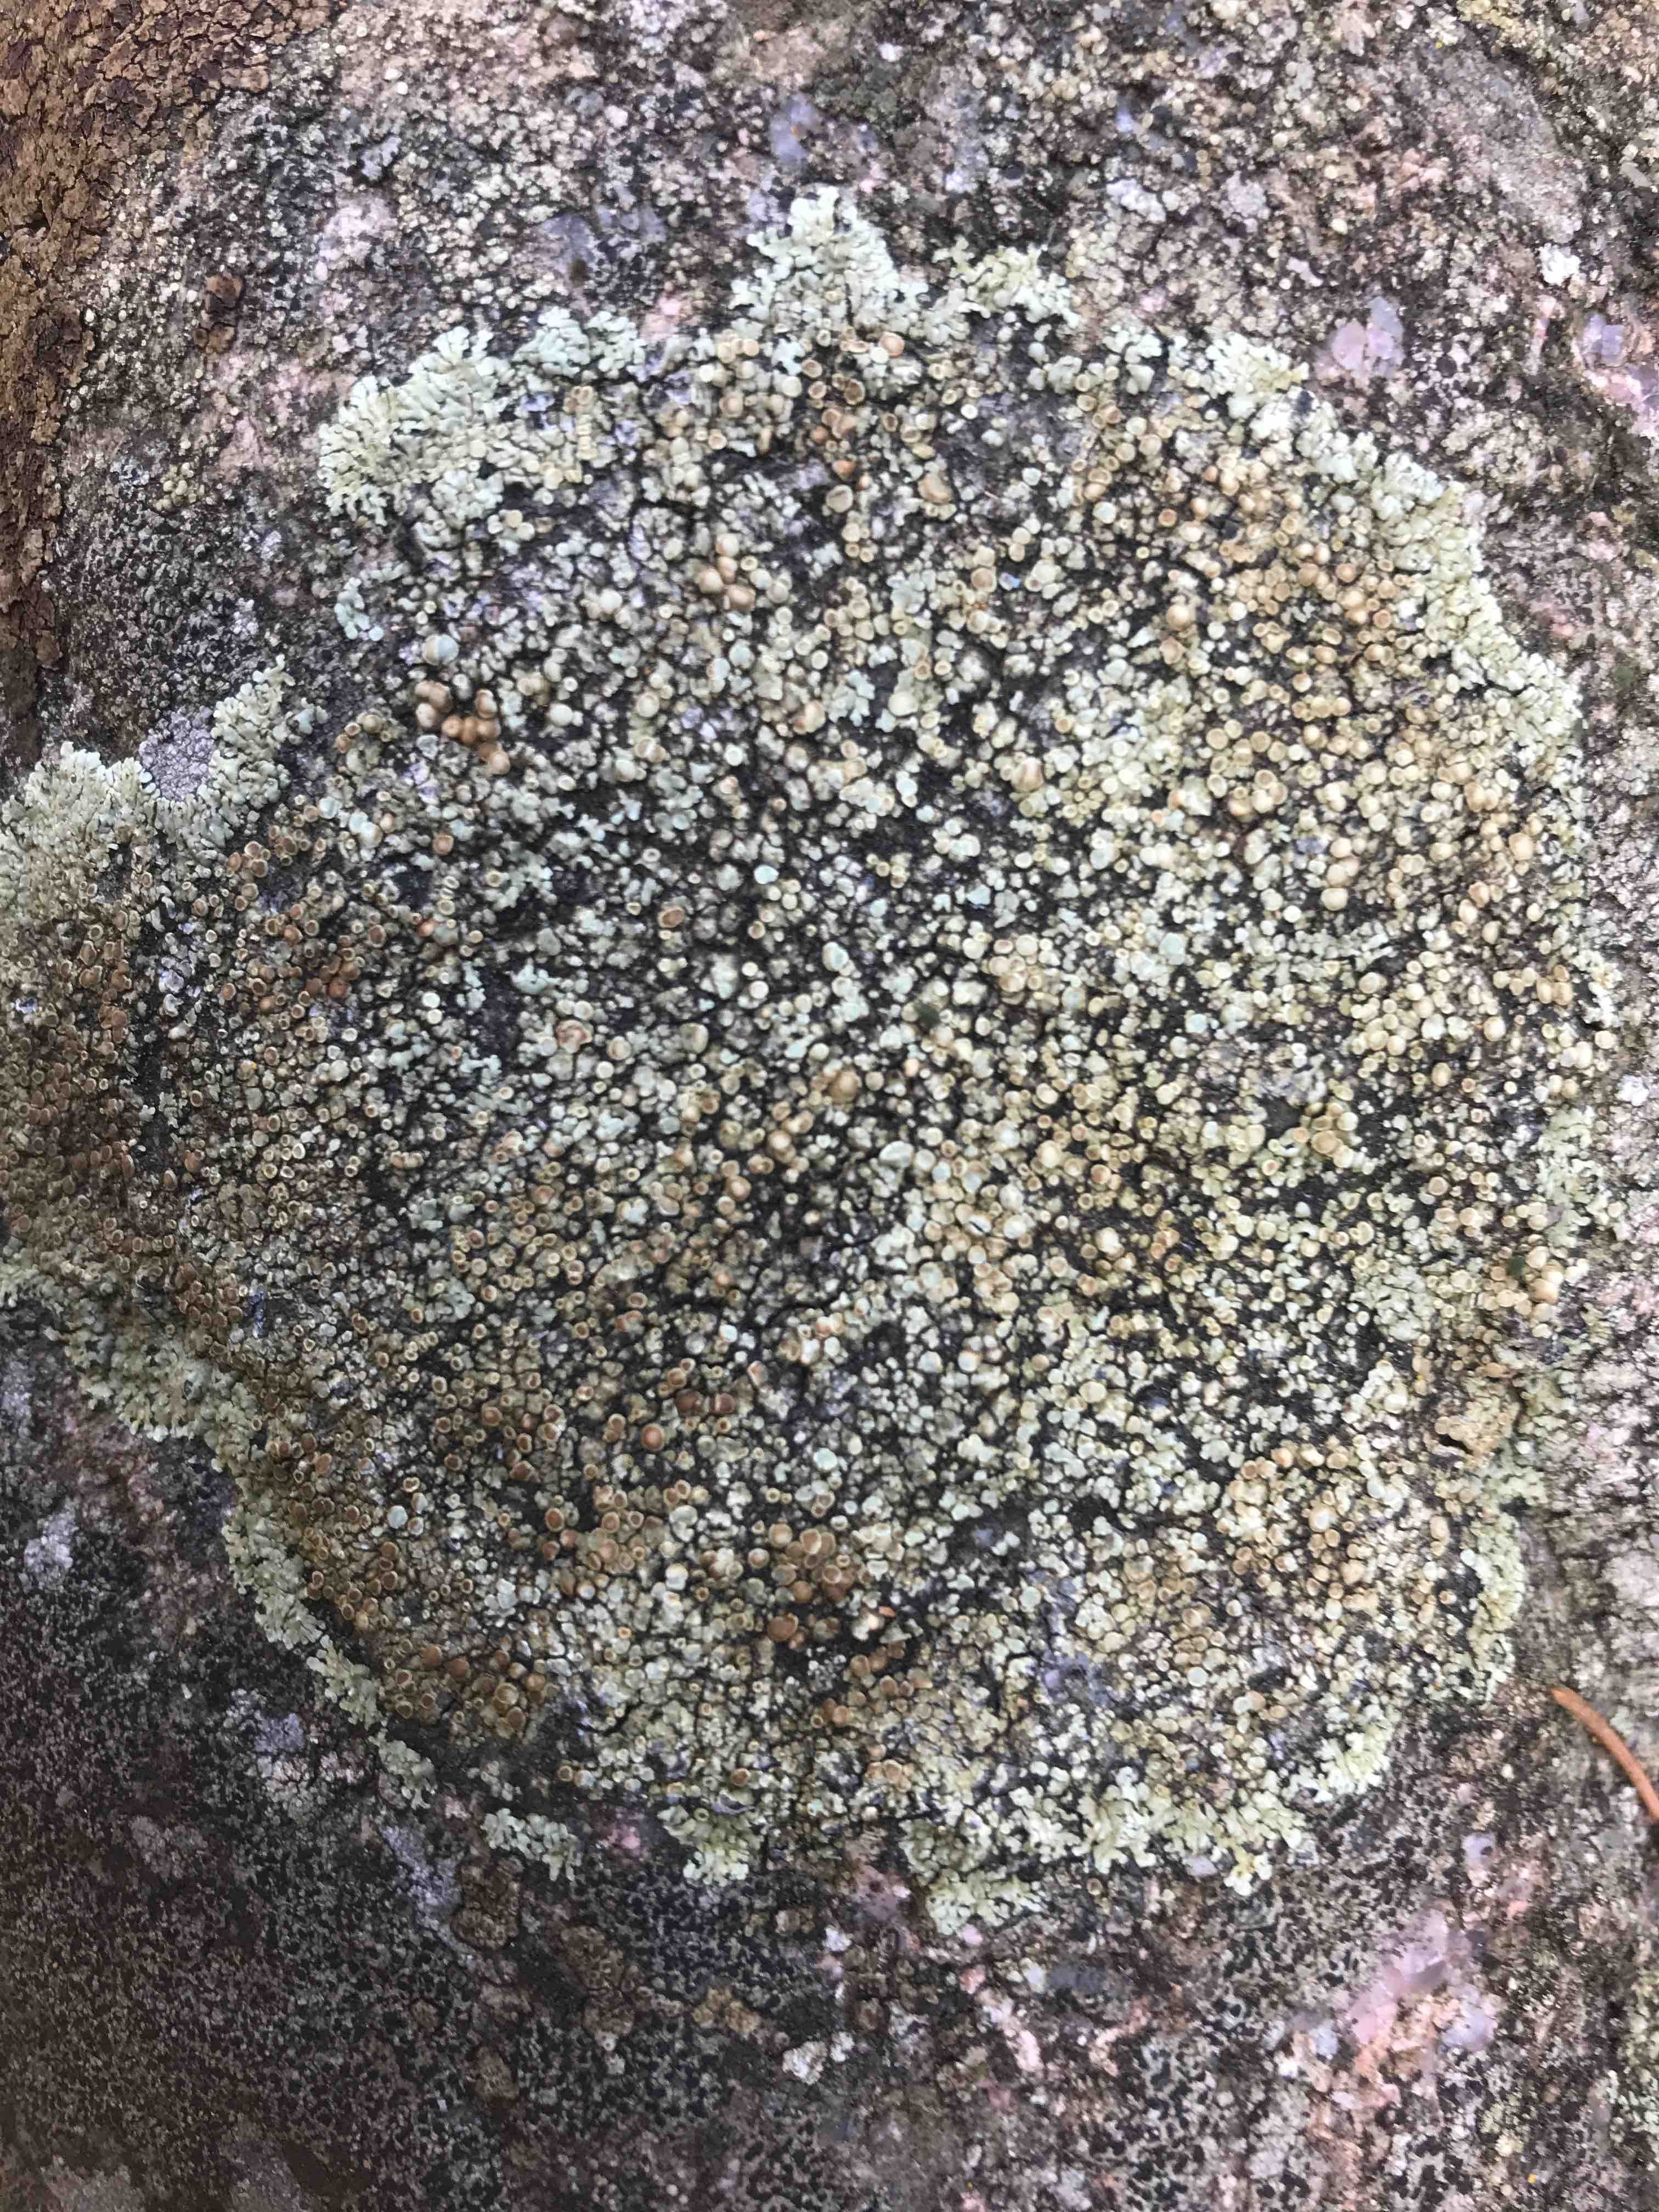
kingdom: Fungi
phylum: Ascomycota
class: Lecanoromycetes
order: Lecanorales
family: Lecanoraceae
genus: Protoparmeliopsis
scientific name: Protoparmeliopsis muralis
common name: randfliget kantskivelav
